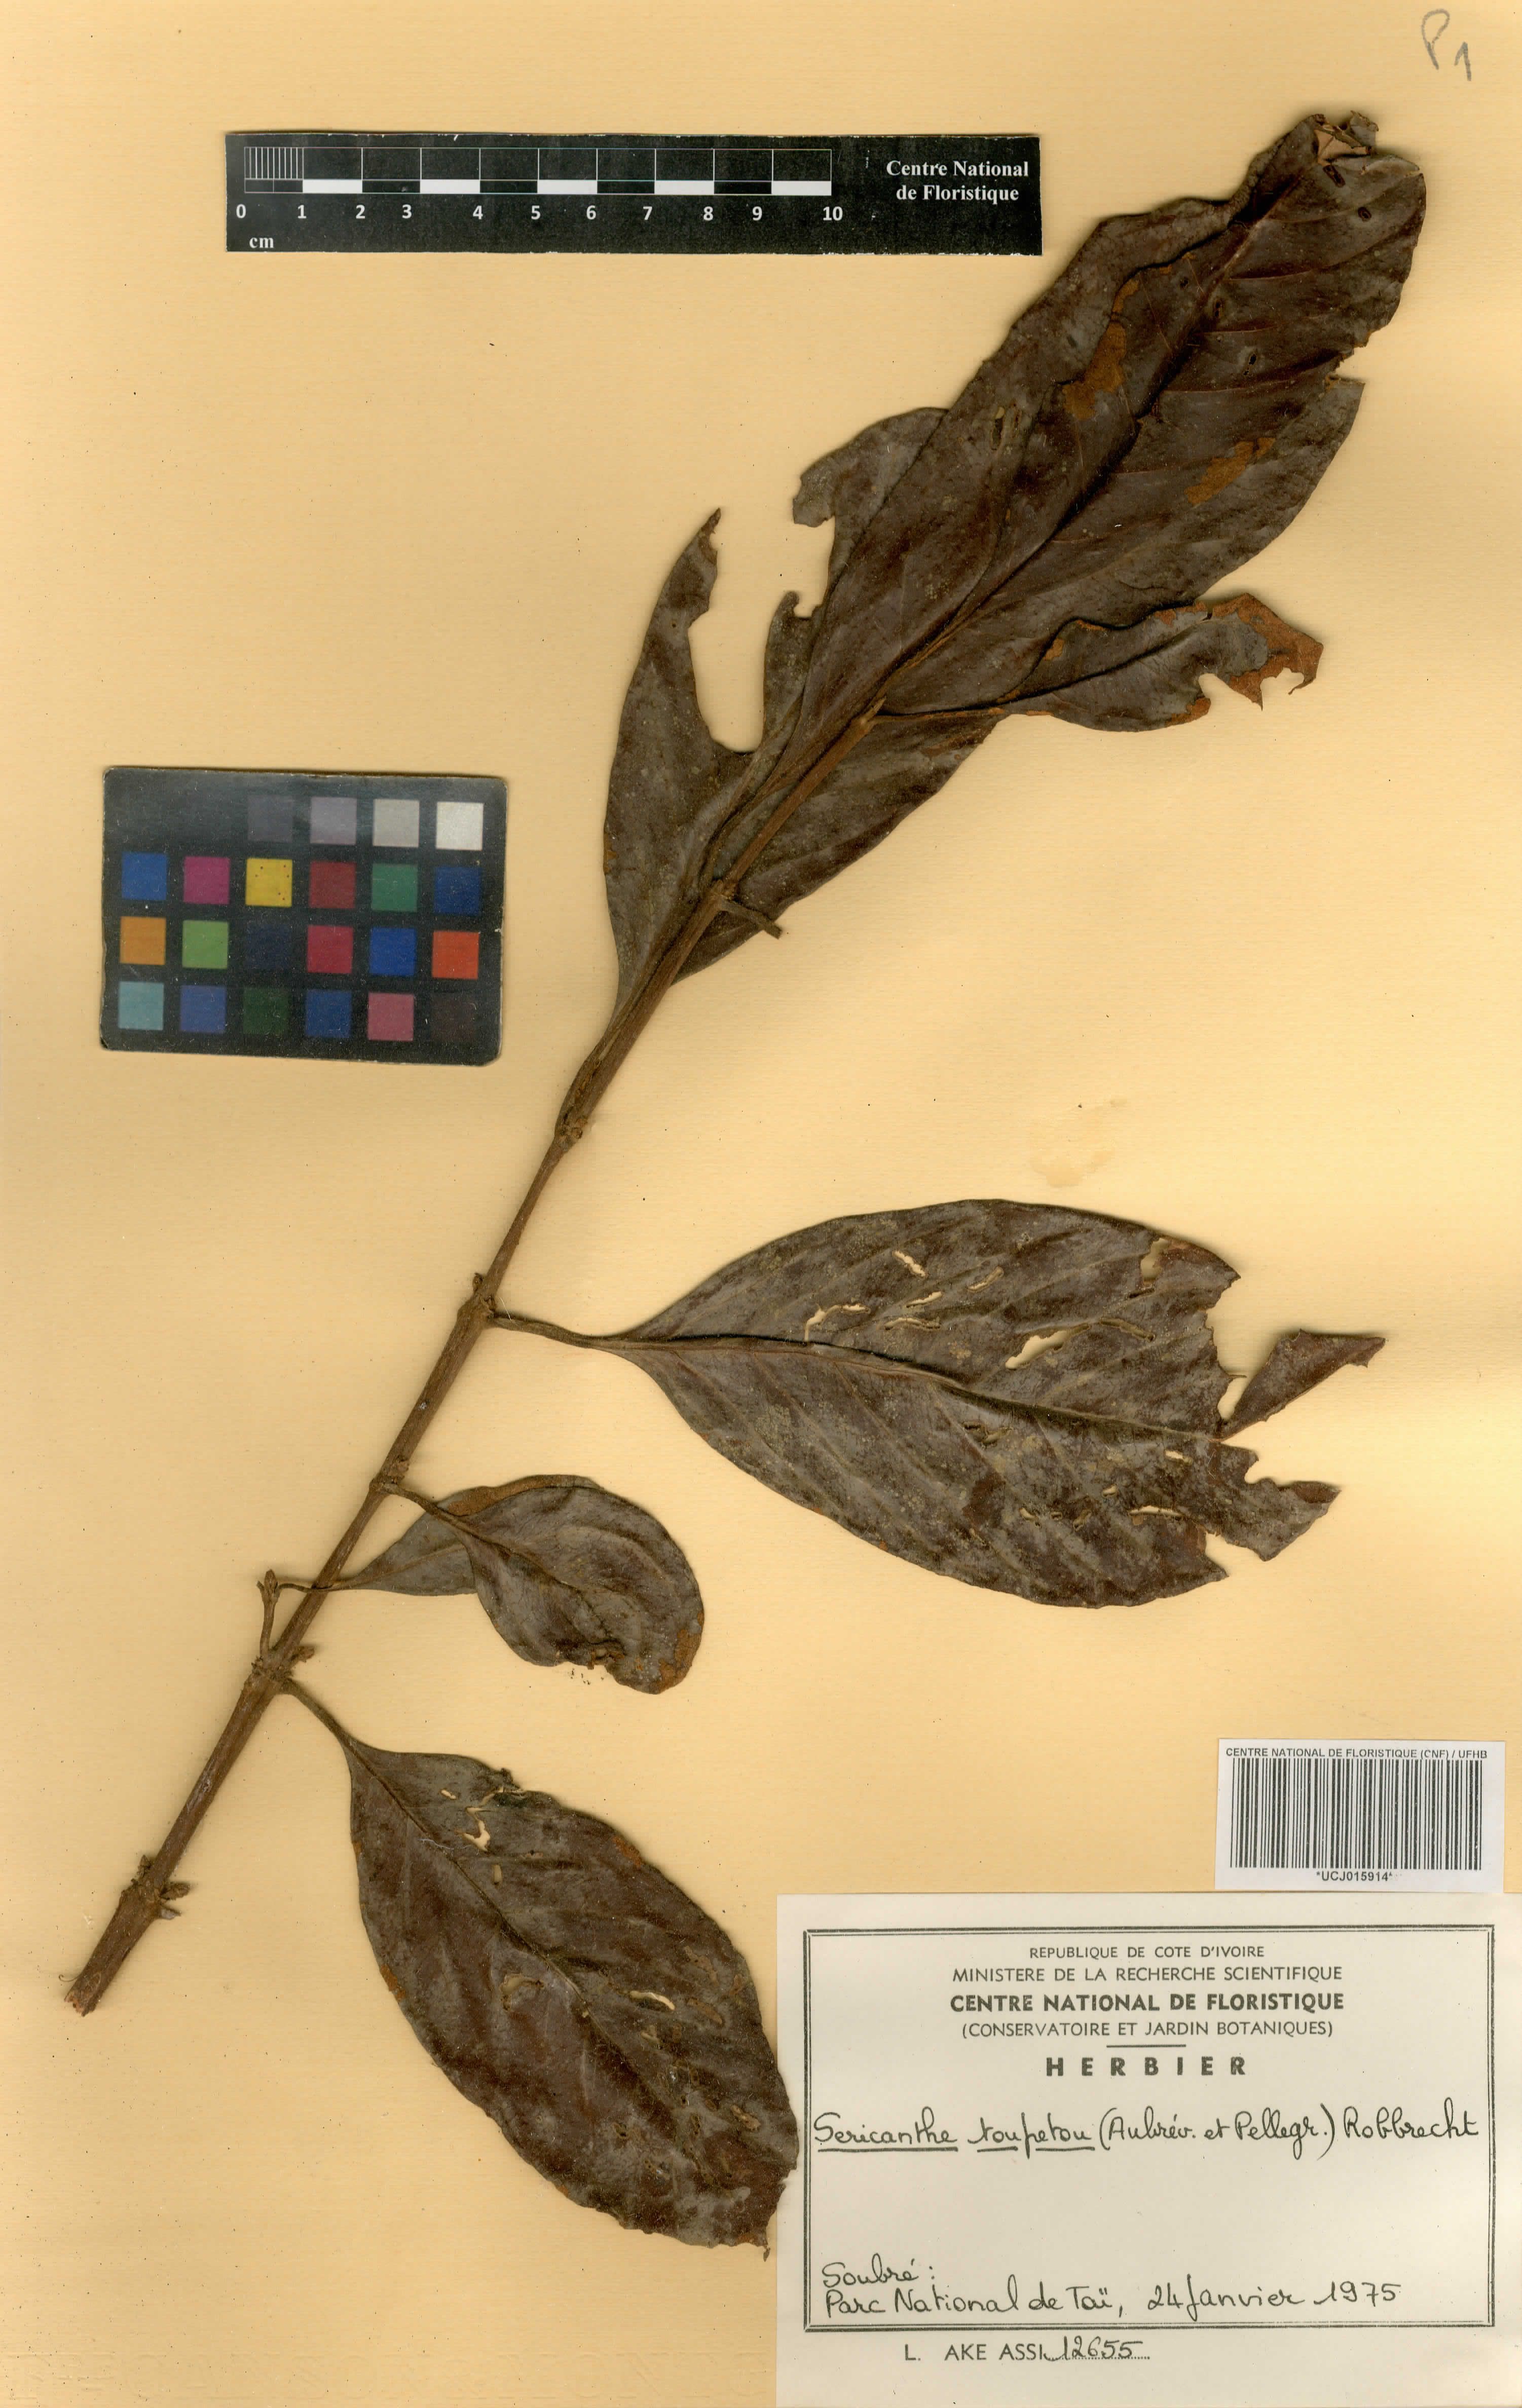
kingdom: Plantae
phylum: Tracheophyta
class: Magnoliopsida
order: Gentianales
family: Rubiaceae
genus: Sericanthe
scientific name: Sericanthe toupetou
